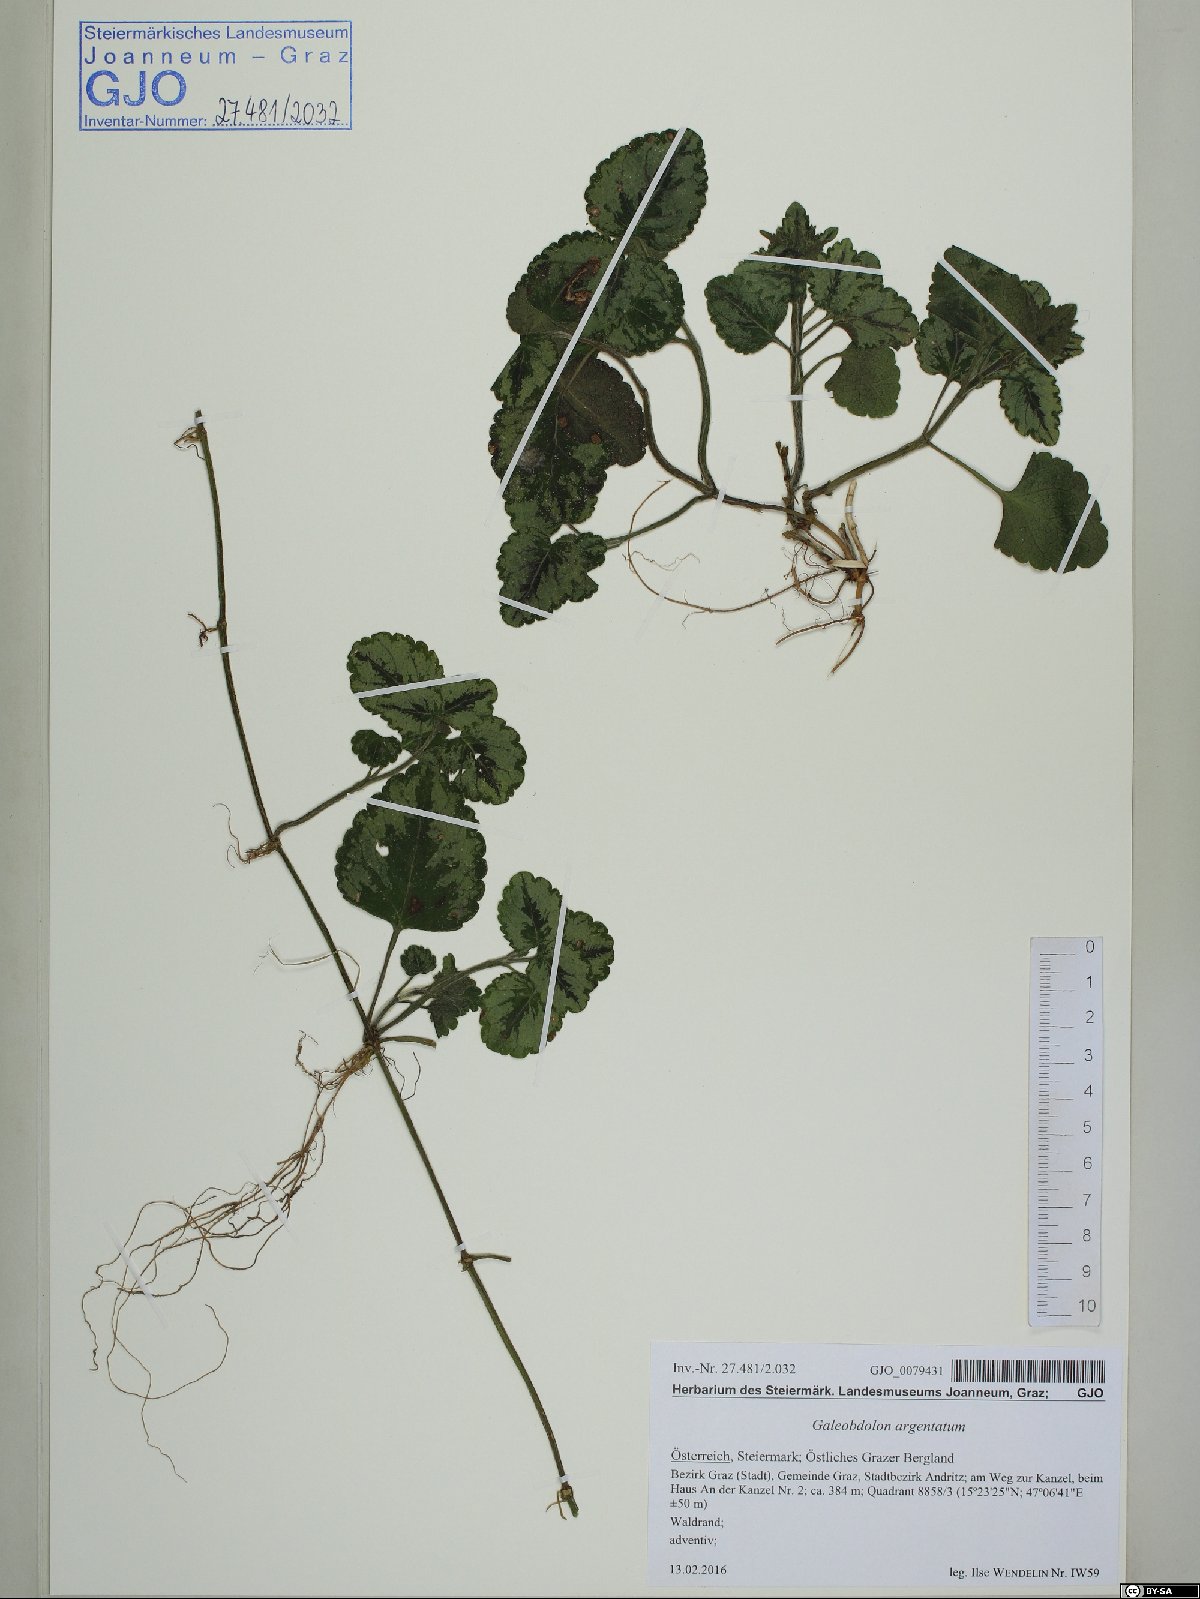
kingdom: Plantae
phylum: Tracheophyta
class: Magnoliopsida
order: Lamiales
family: Lamiaceae
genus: Lamium
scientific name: Lamium galeobdolon
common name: Yellow archangel
